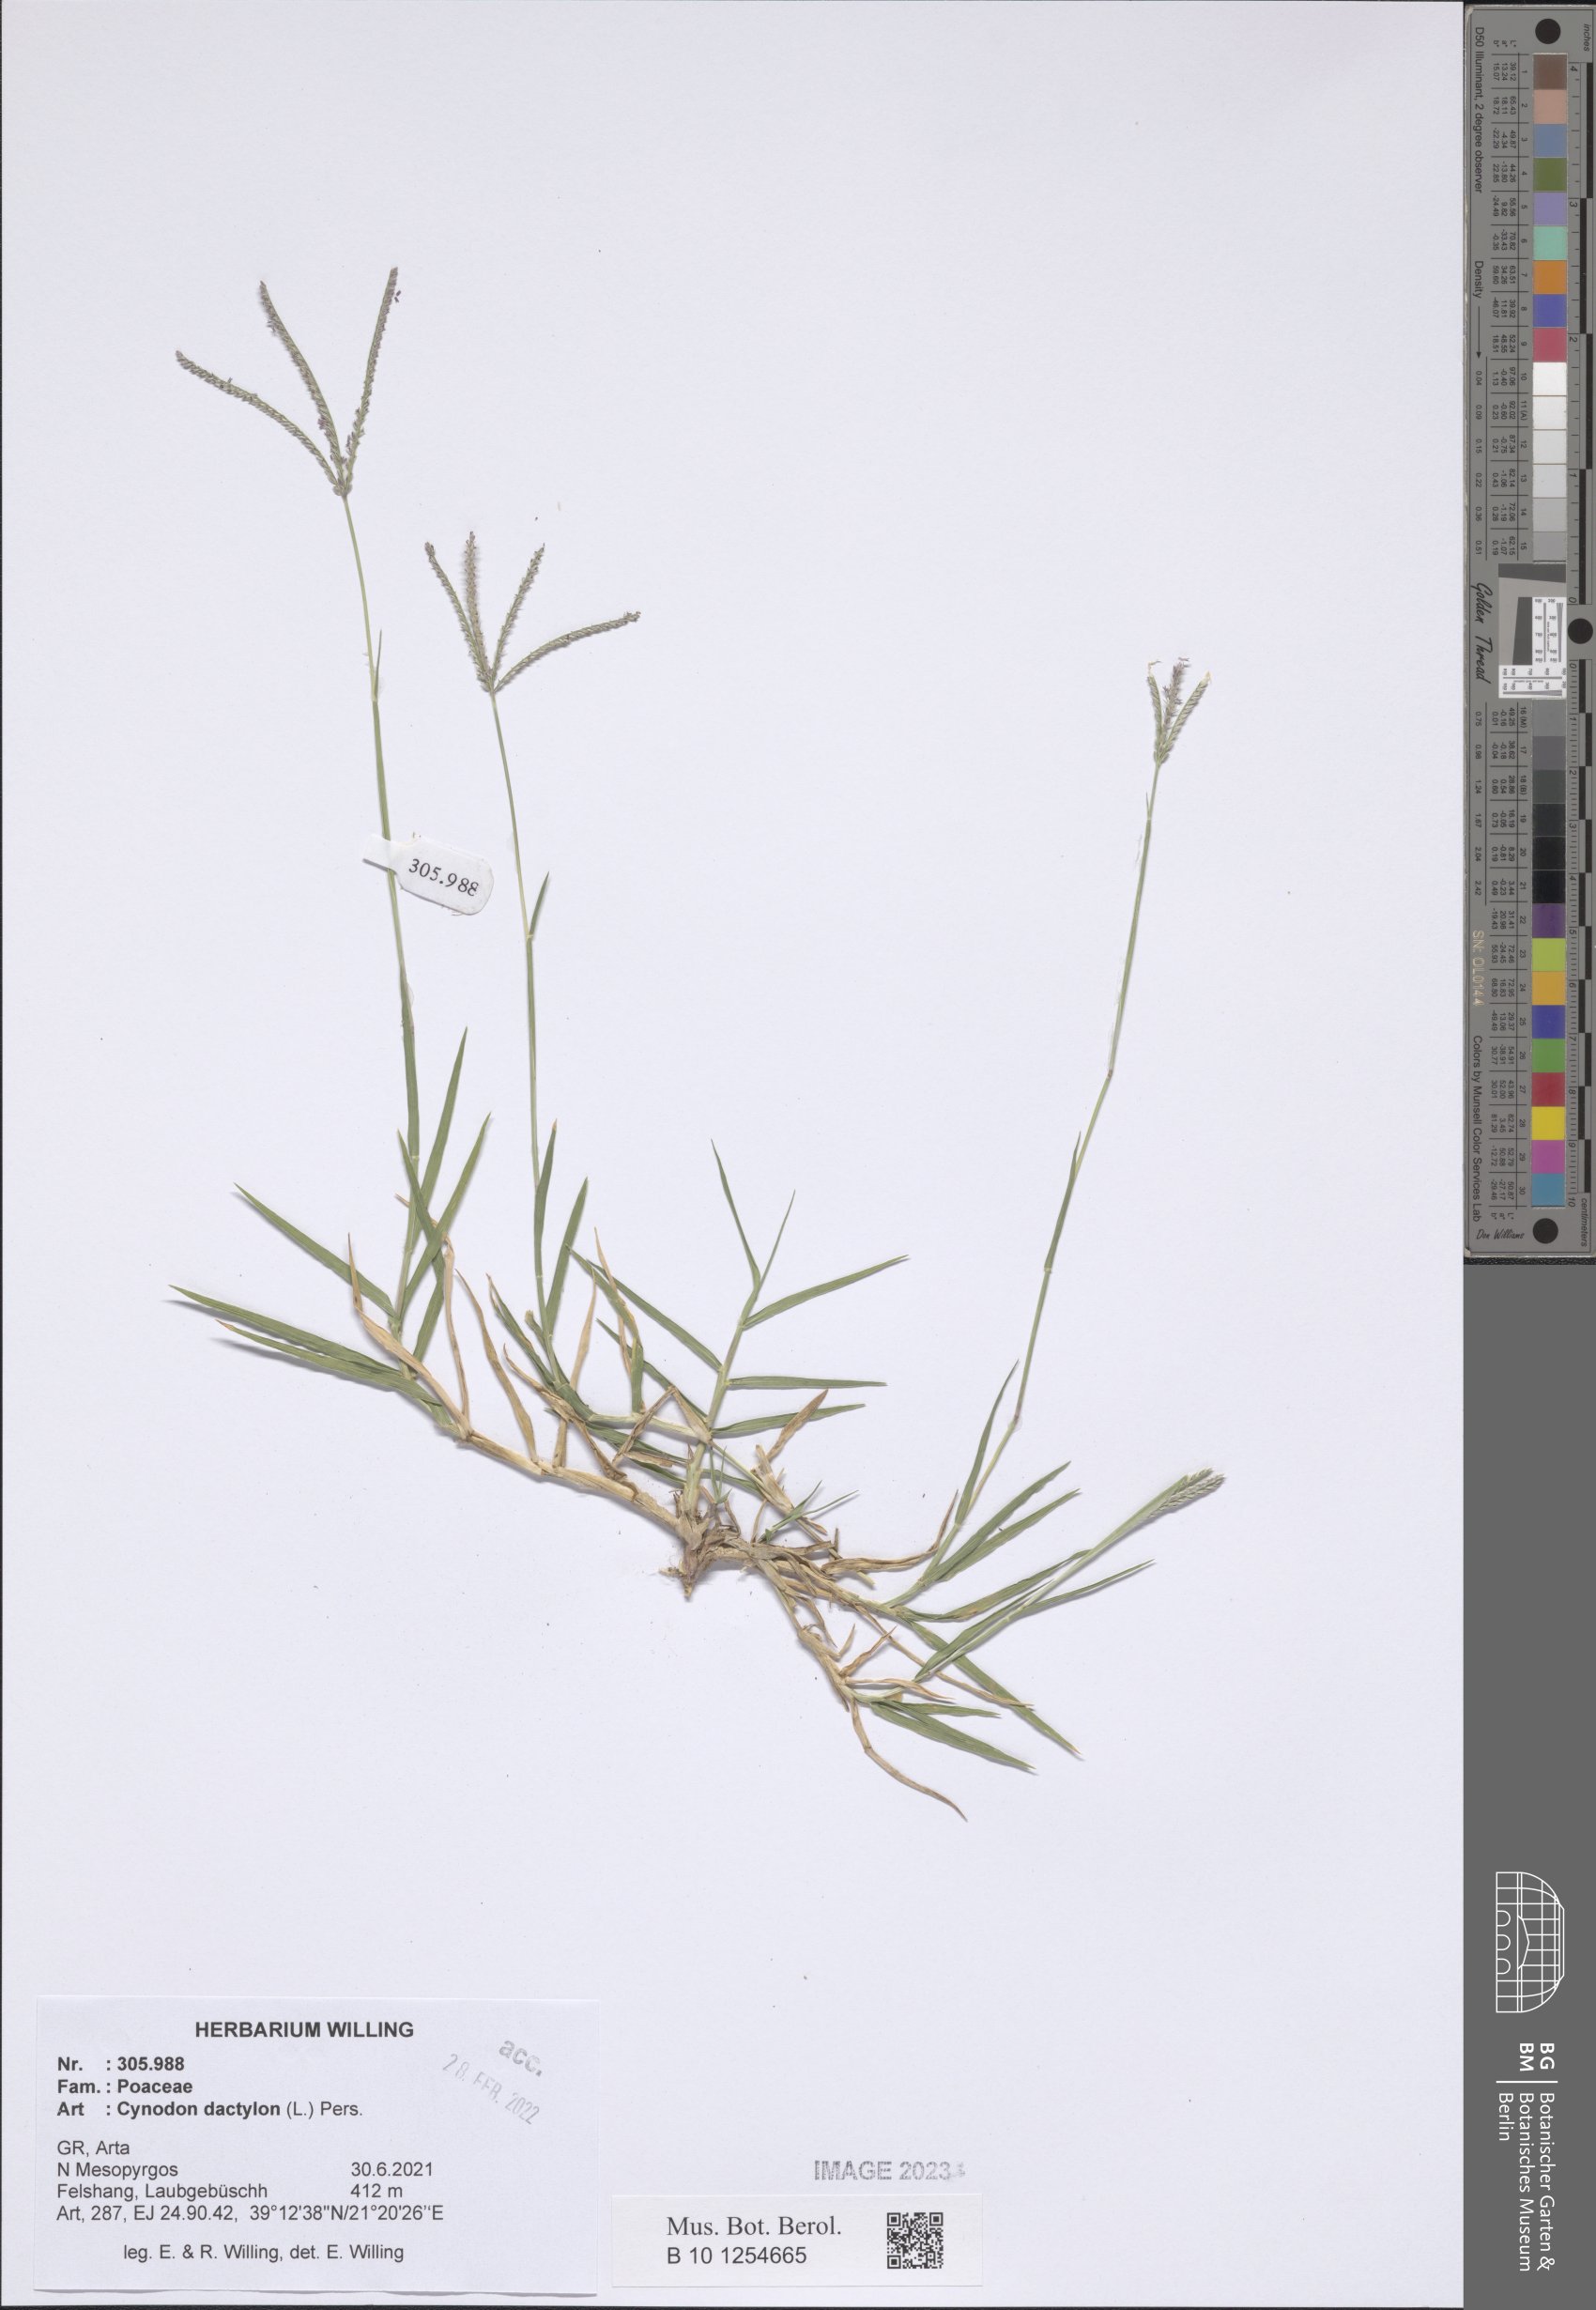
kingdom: Plantae
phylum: Tracheophyta
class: Liliopsida
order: Poales
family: Poaceae
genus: Cynodon
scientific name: Cynodon dactylon
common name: Bermuda grass
